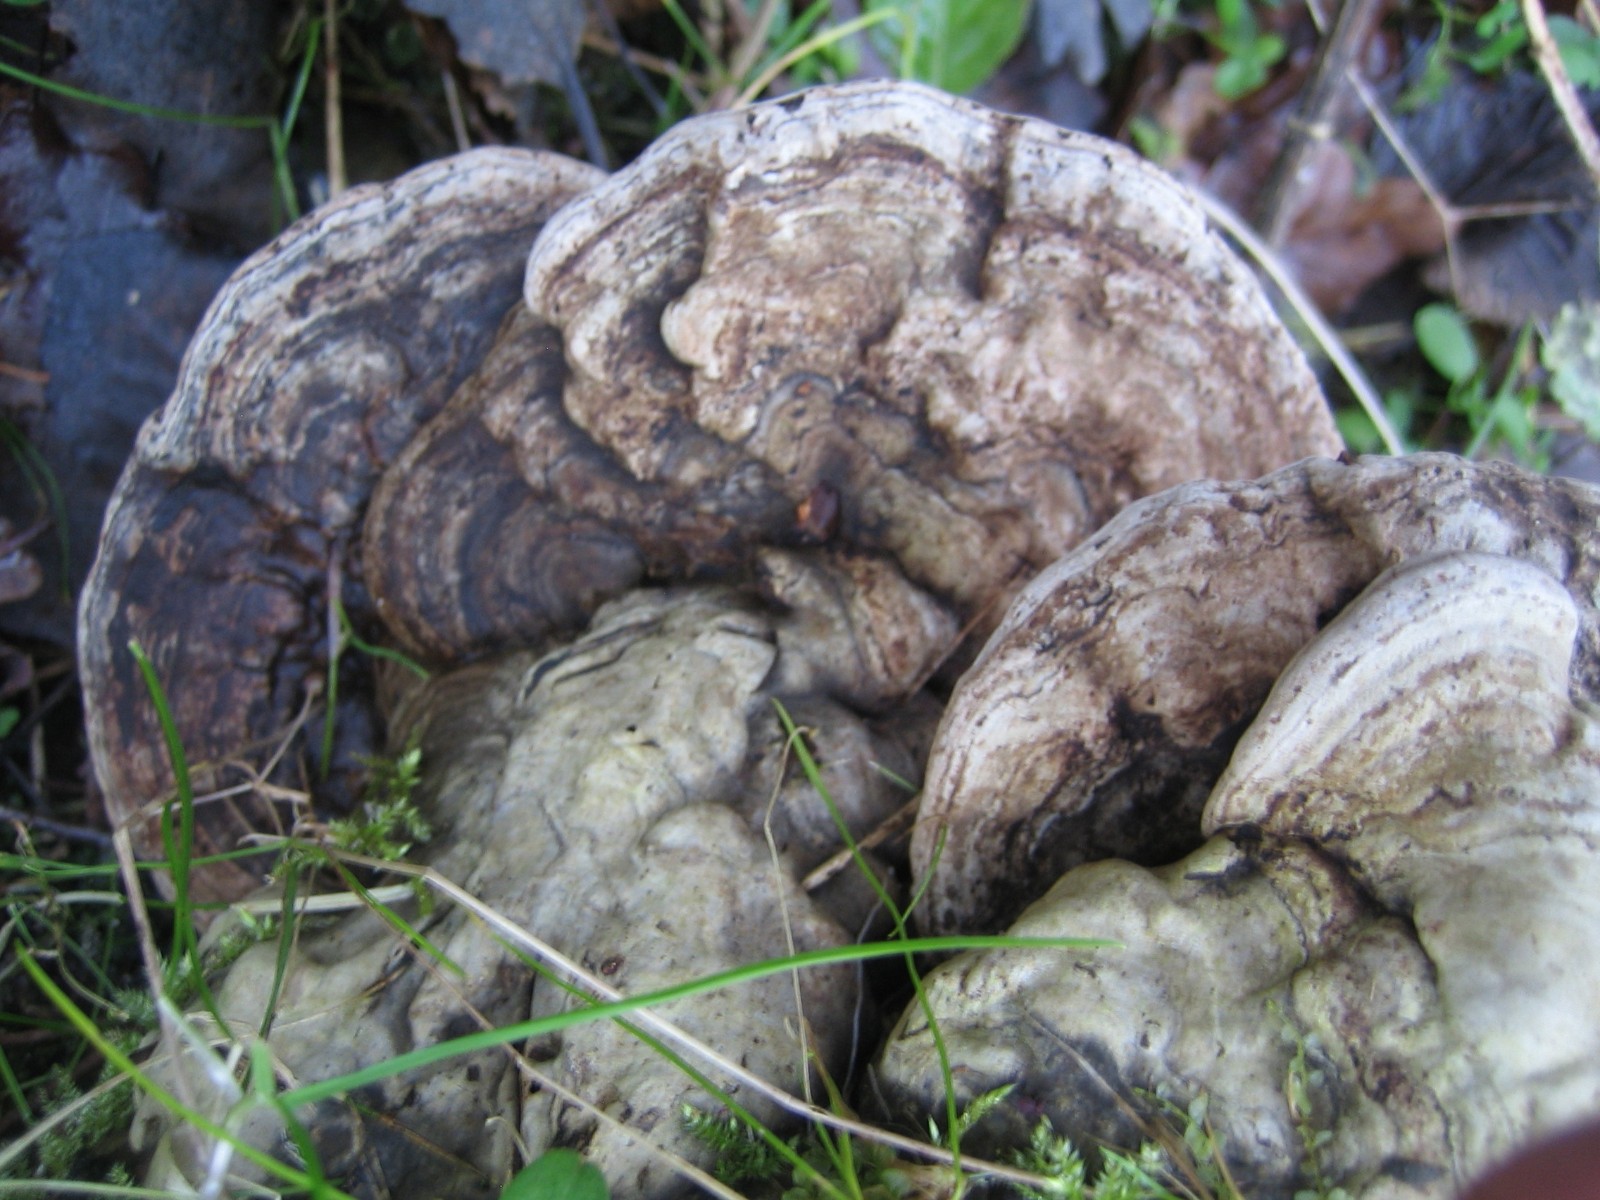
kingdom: Fungi
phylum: Basidiomycota
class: Agaricomycetes
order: Polyporales
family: Polyporaceae
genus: Ganoderma
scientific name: Ganoderma applanatum
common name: flad lakporesvamp
